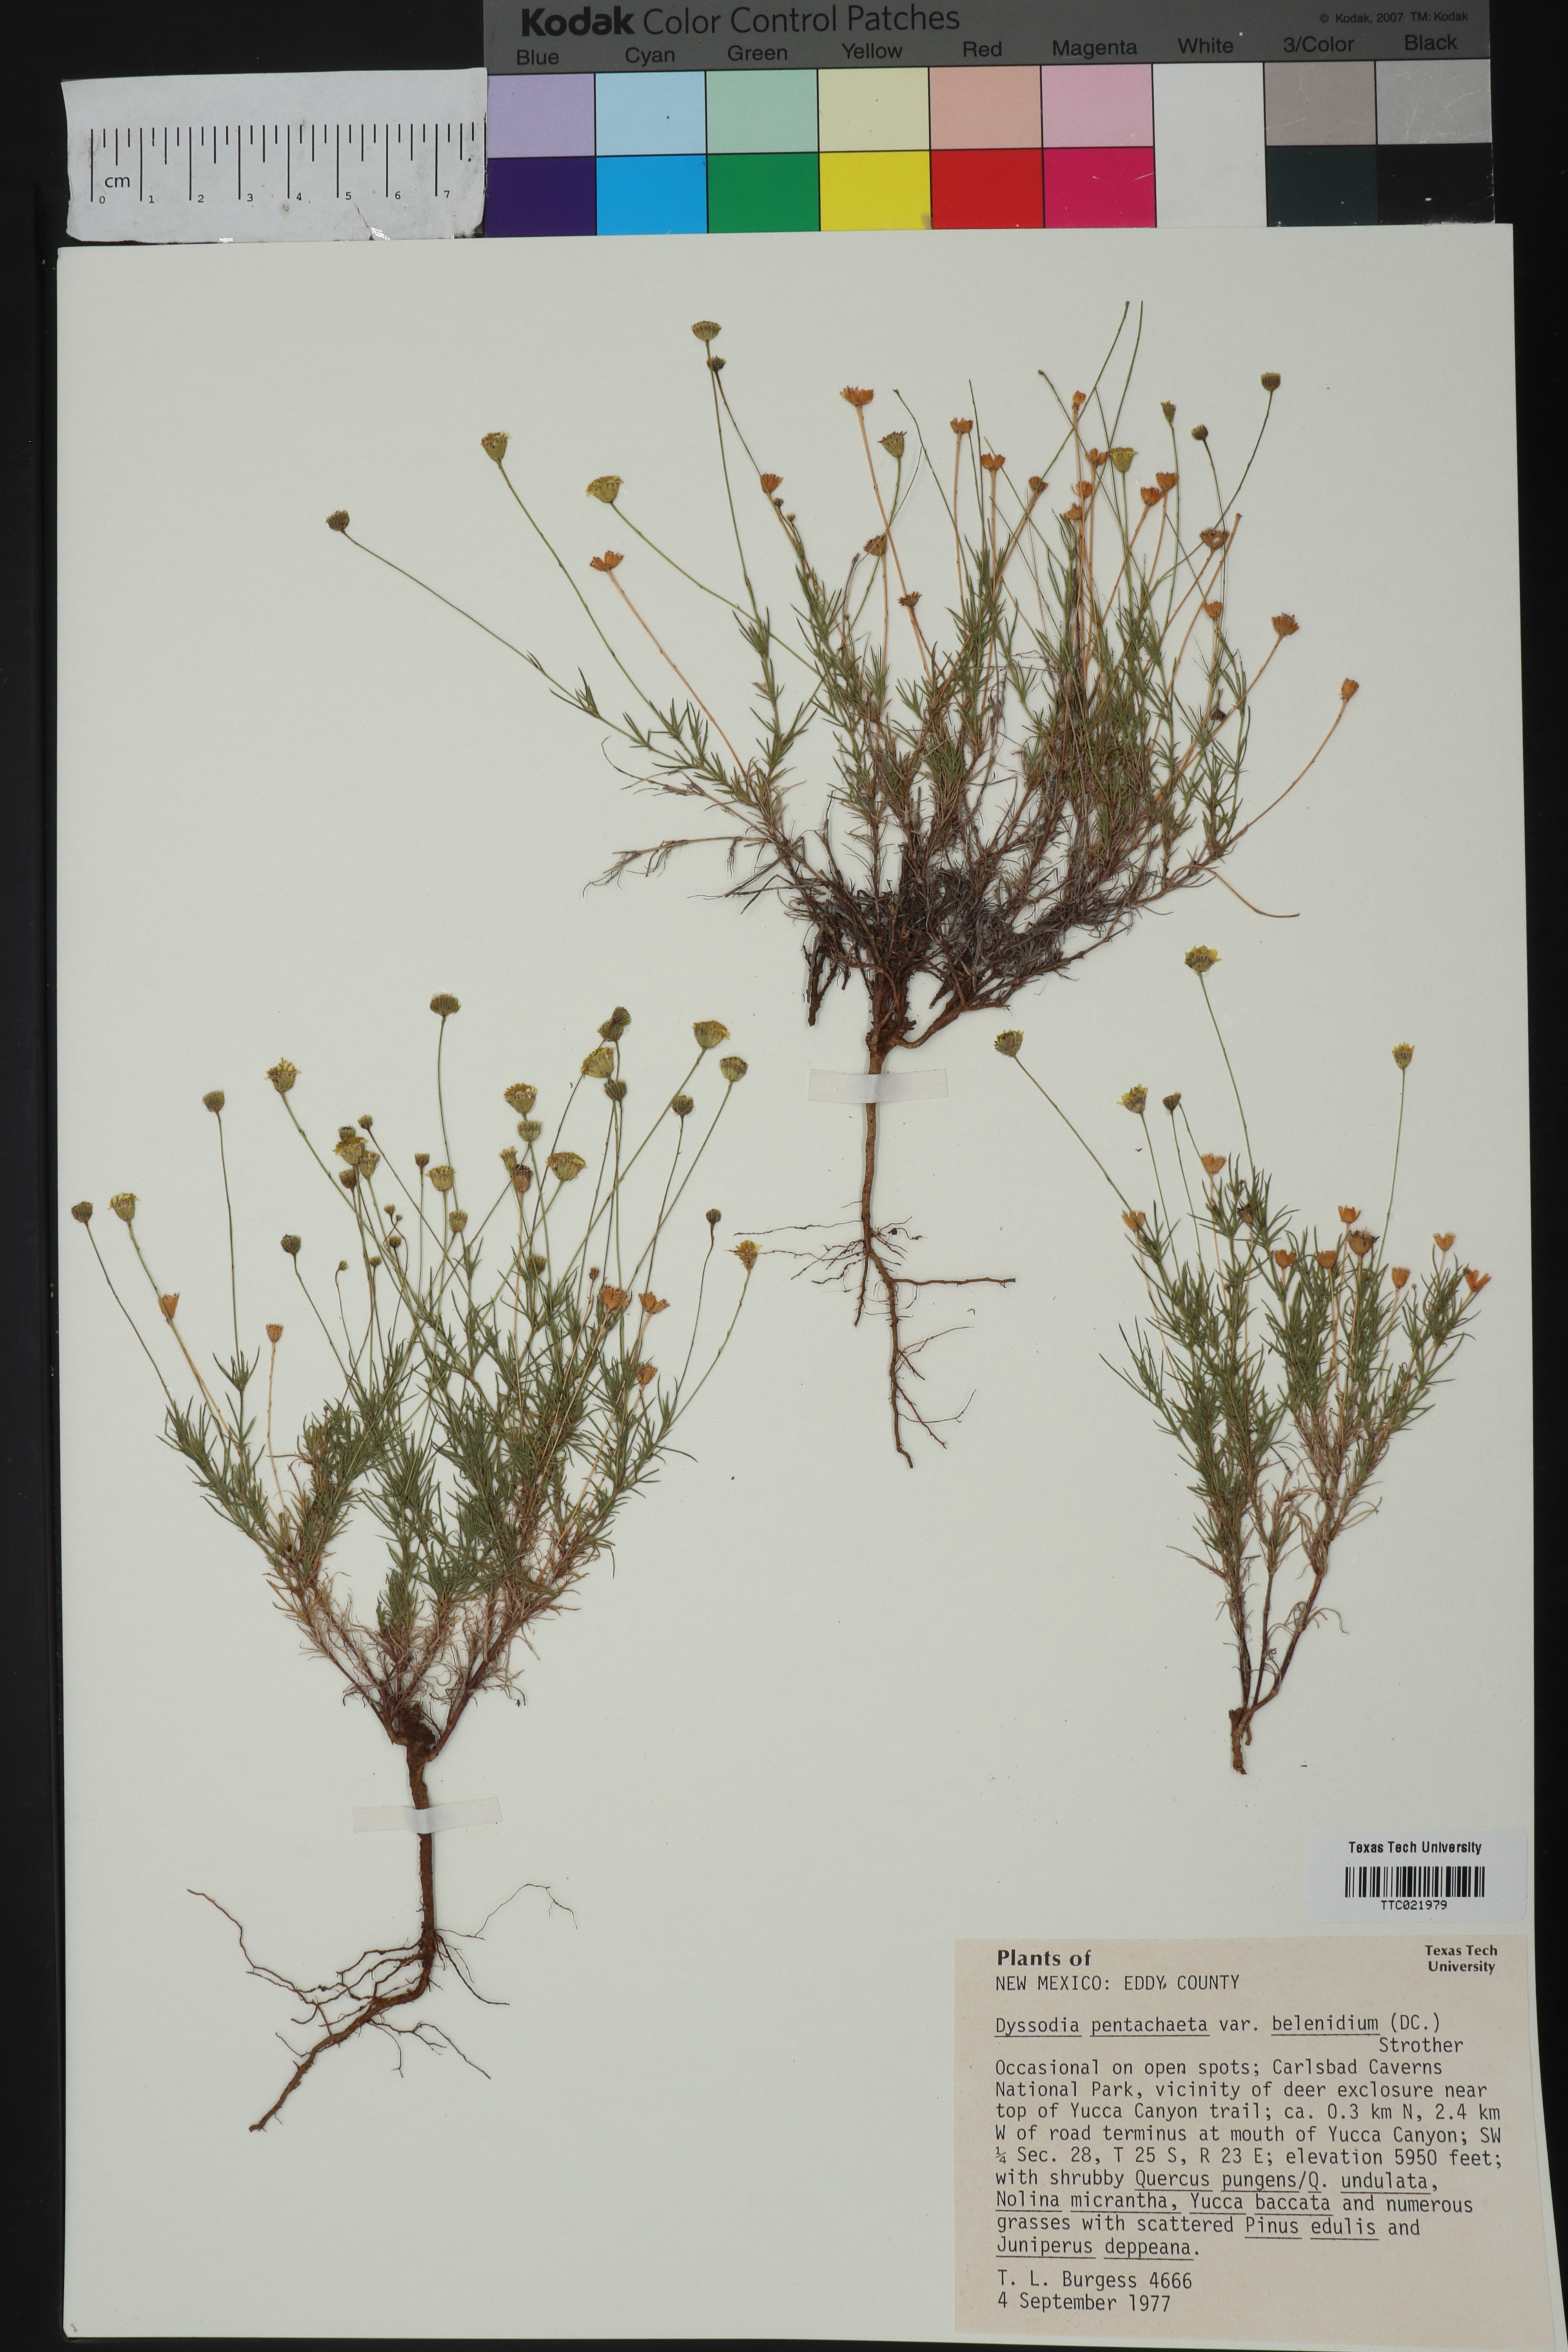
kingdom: Plantae
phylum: Tracheophyta
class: Magnoliopsida
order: Asterales
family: Asteraceae
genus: Thymophylla
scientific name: Thymophylla pentachaeta
